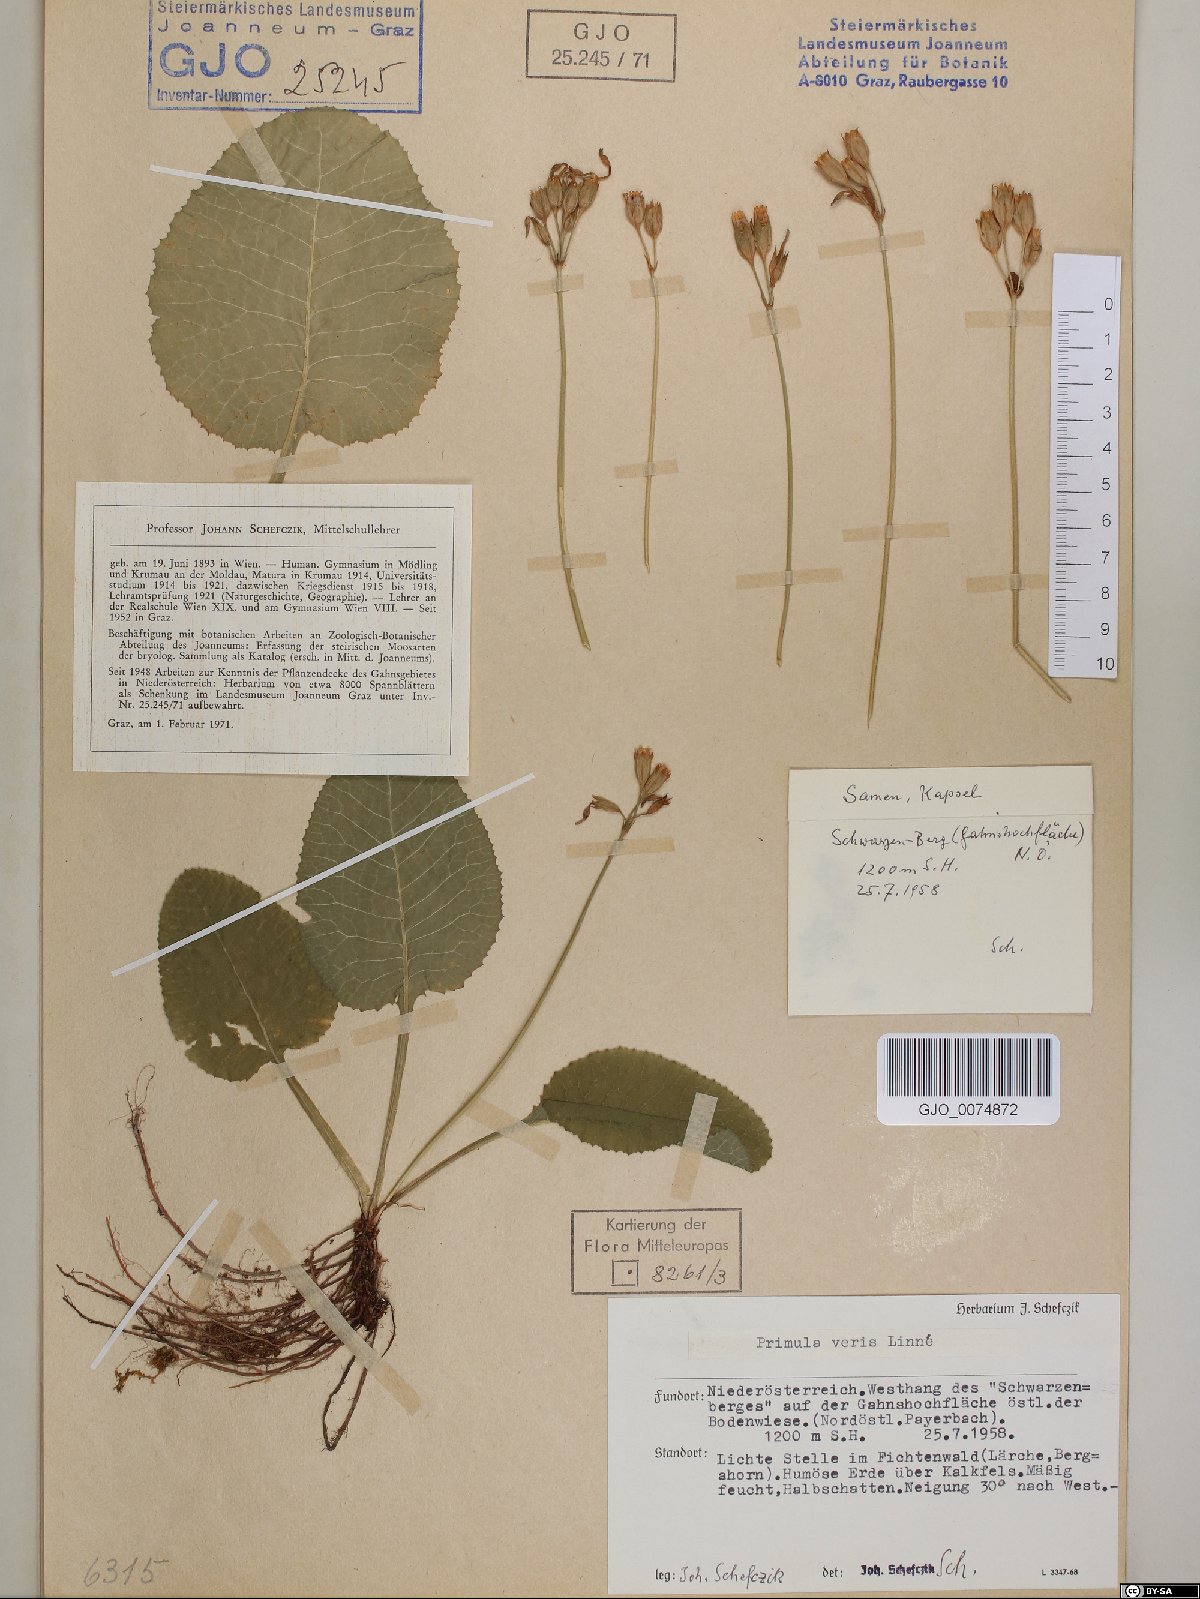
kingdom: Plantae
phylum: Tracheophyta
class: Magnoliopsida
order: Ericales
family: Primulaceae
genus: Primula
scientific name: Primula veris
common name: Cowslip
